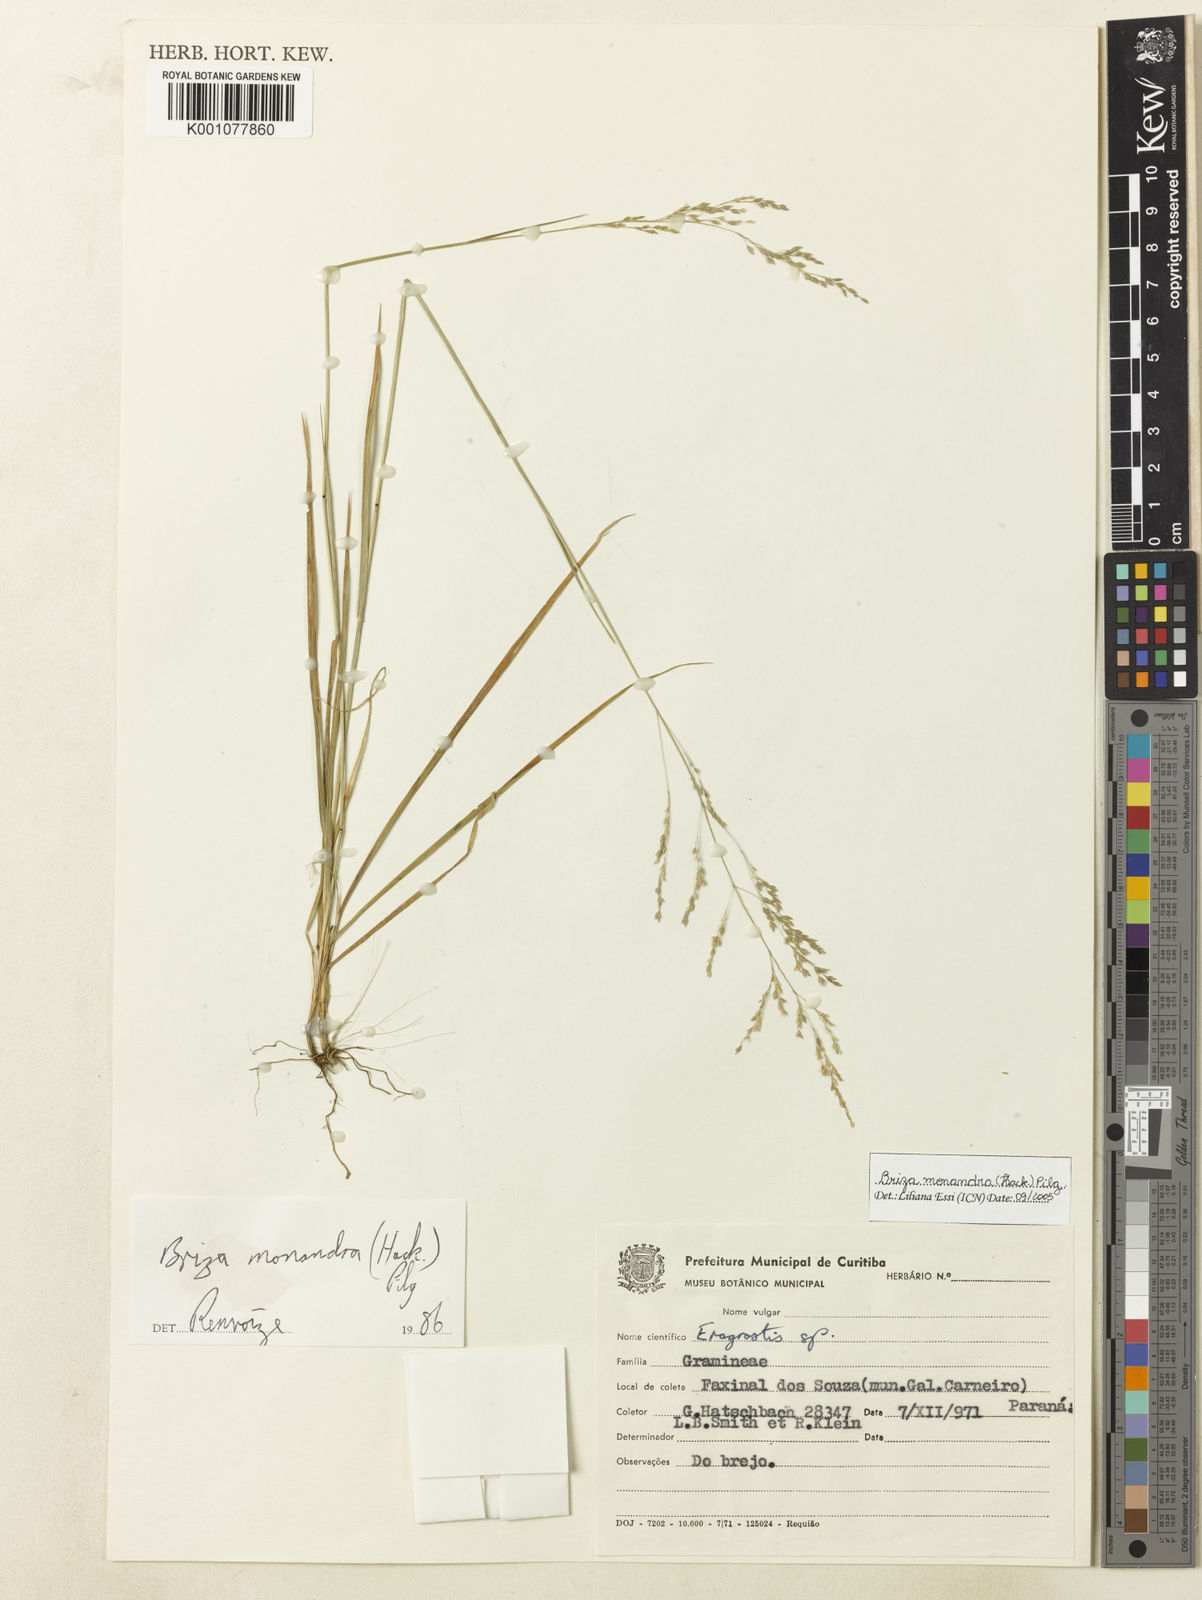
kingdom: Plantae
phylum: Tracheophyta
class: Liliopsida
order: Poales
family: Poaceae
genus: Poidium
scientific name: Poidium monandrum
